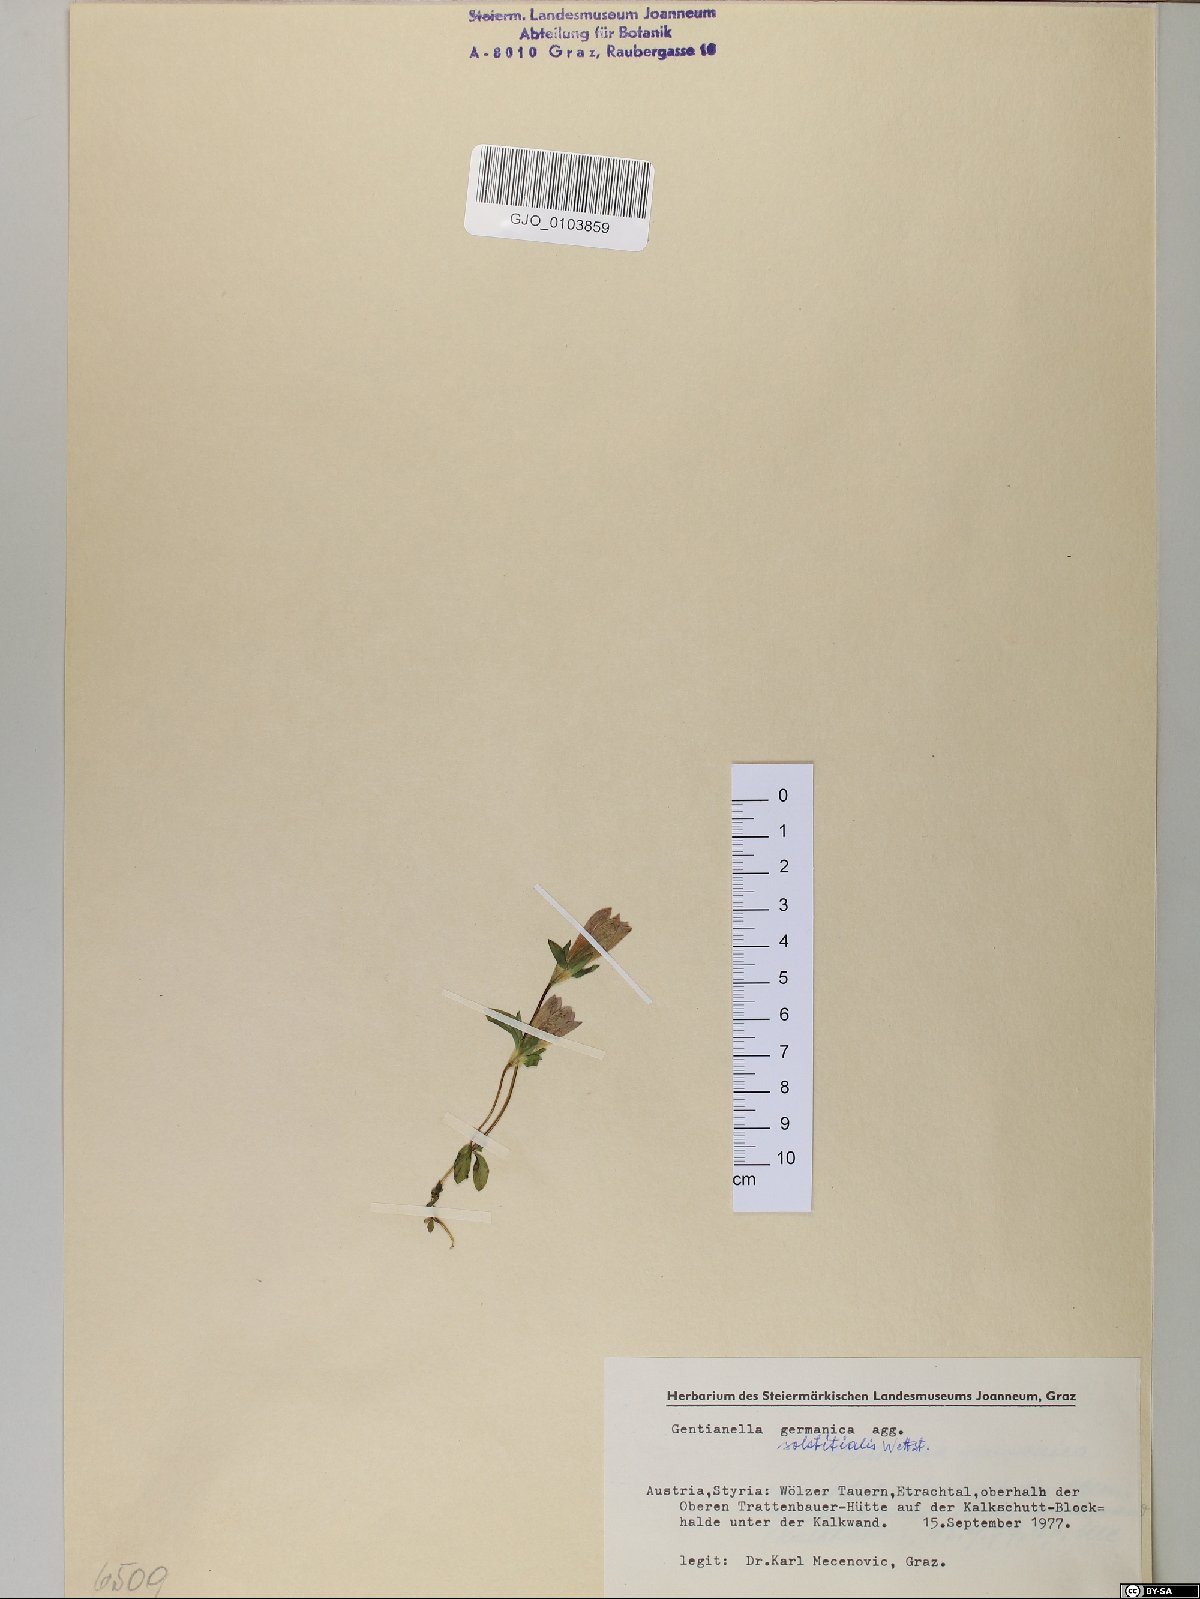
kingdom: Plantae
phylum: Tracheophyta
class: Magnoliopsida
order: Gentianales
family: Gentianaceae
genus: Gentianella
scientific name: Gentianella germanica
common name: Chiltern-gentian
